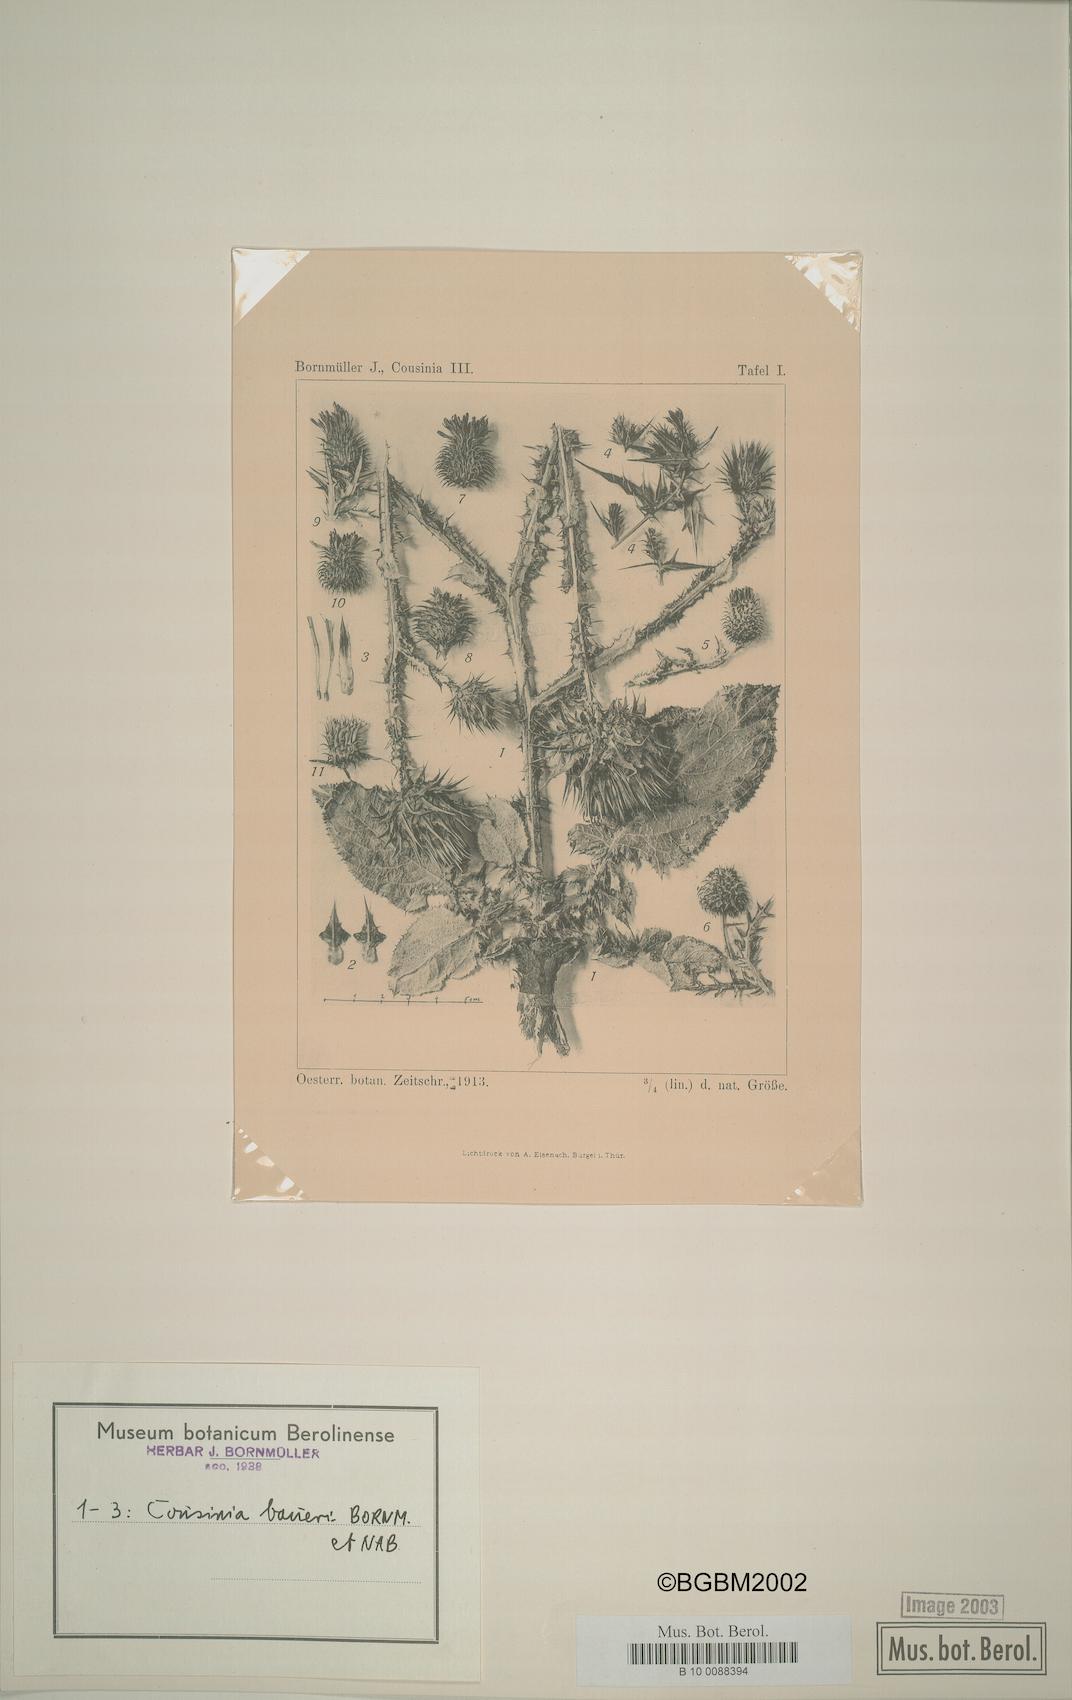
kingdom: Plantae
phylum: Tracheophyta
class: Magnoliopsida
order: Asterales
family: Asteraceae
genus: Cousinia
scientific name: Cousinia odontolepis
